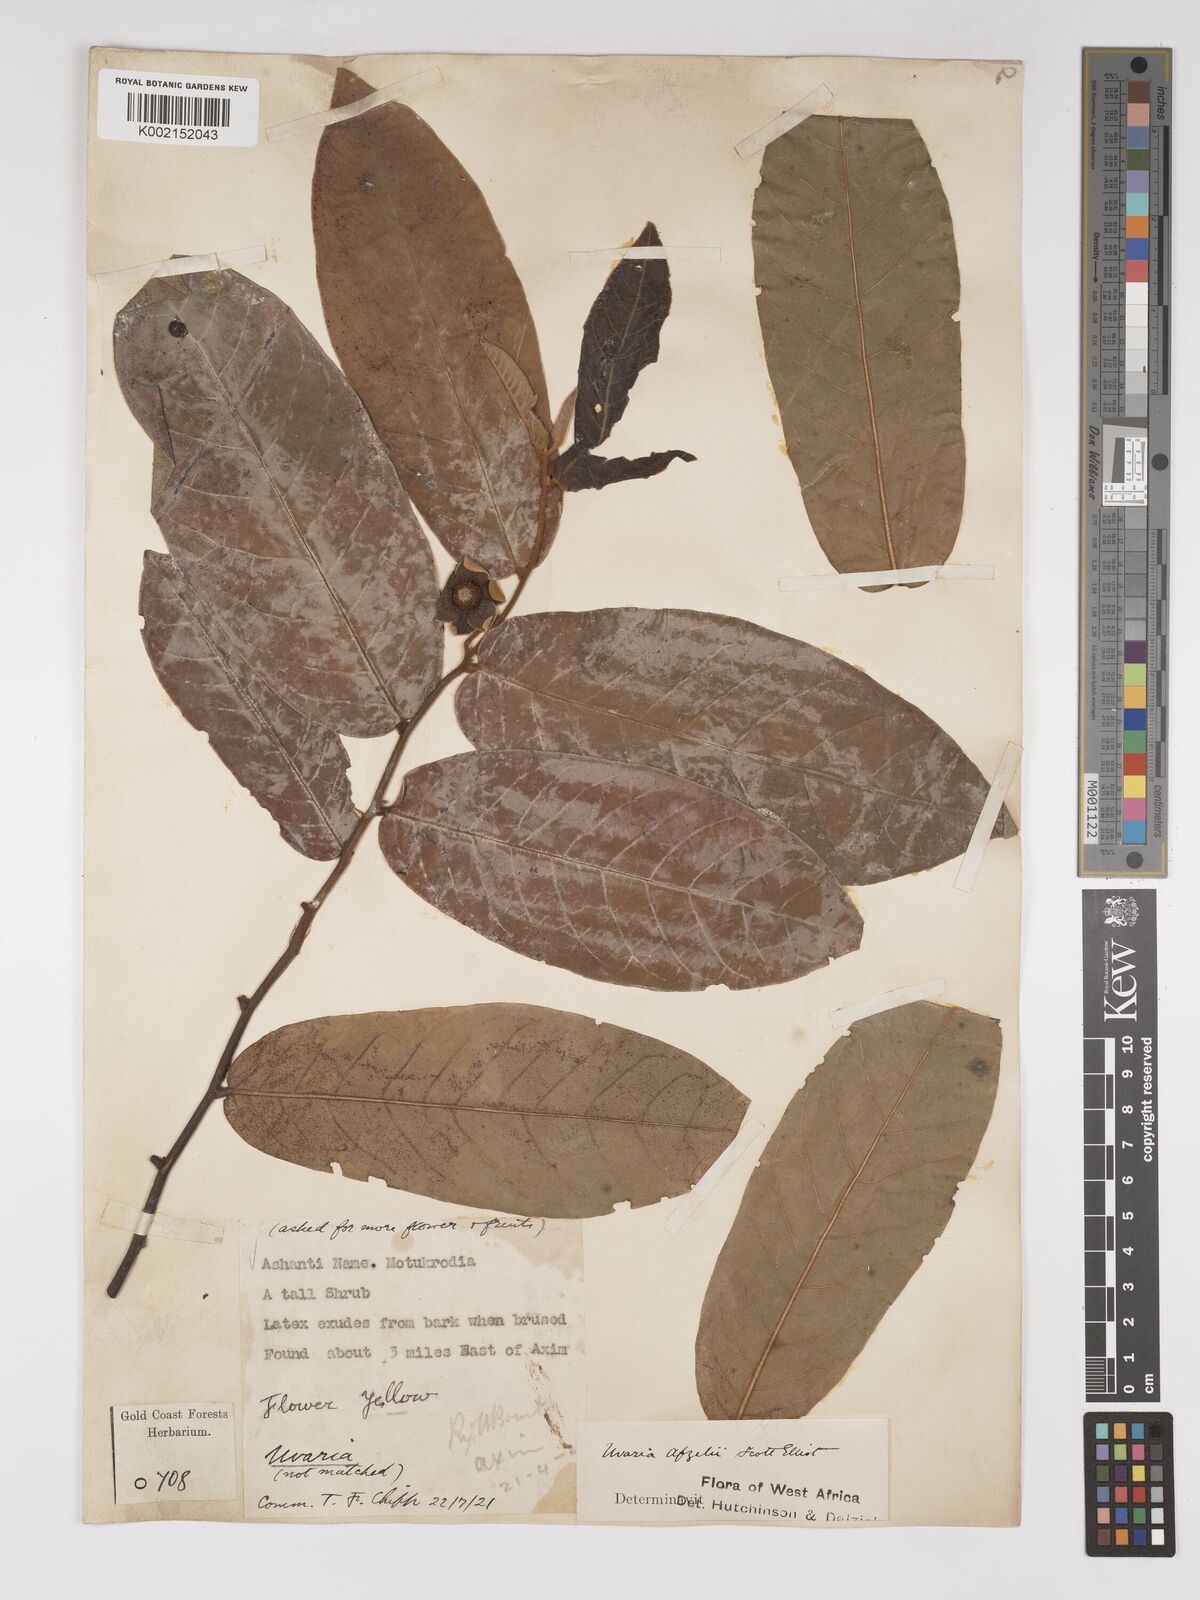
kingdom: Plantae
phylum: Tracheophyta
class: Magnoliopsida
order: Magnoliales
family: Annonaceae
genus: Uvaria
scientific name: Uvaria afzelii
